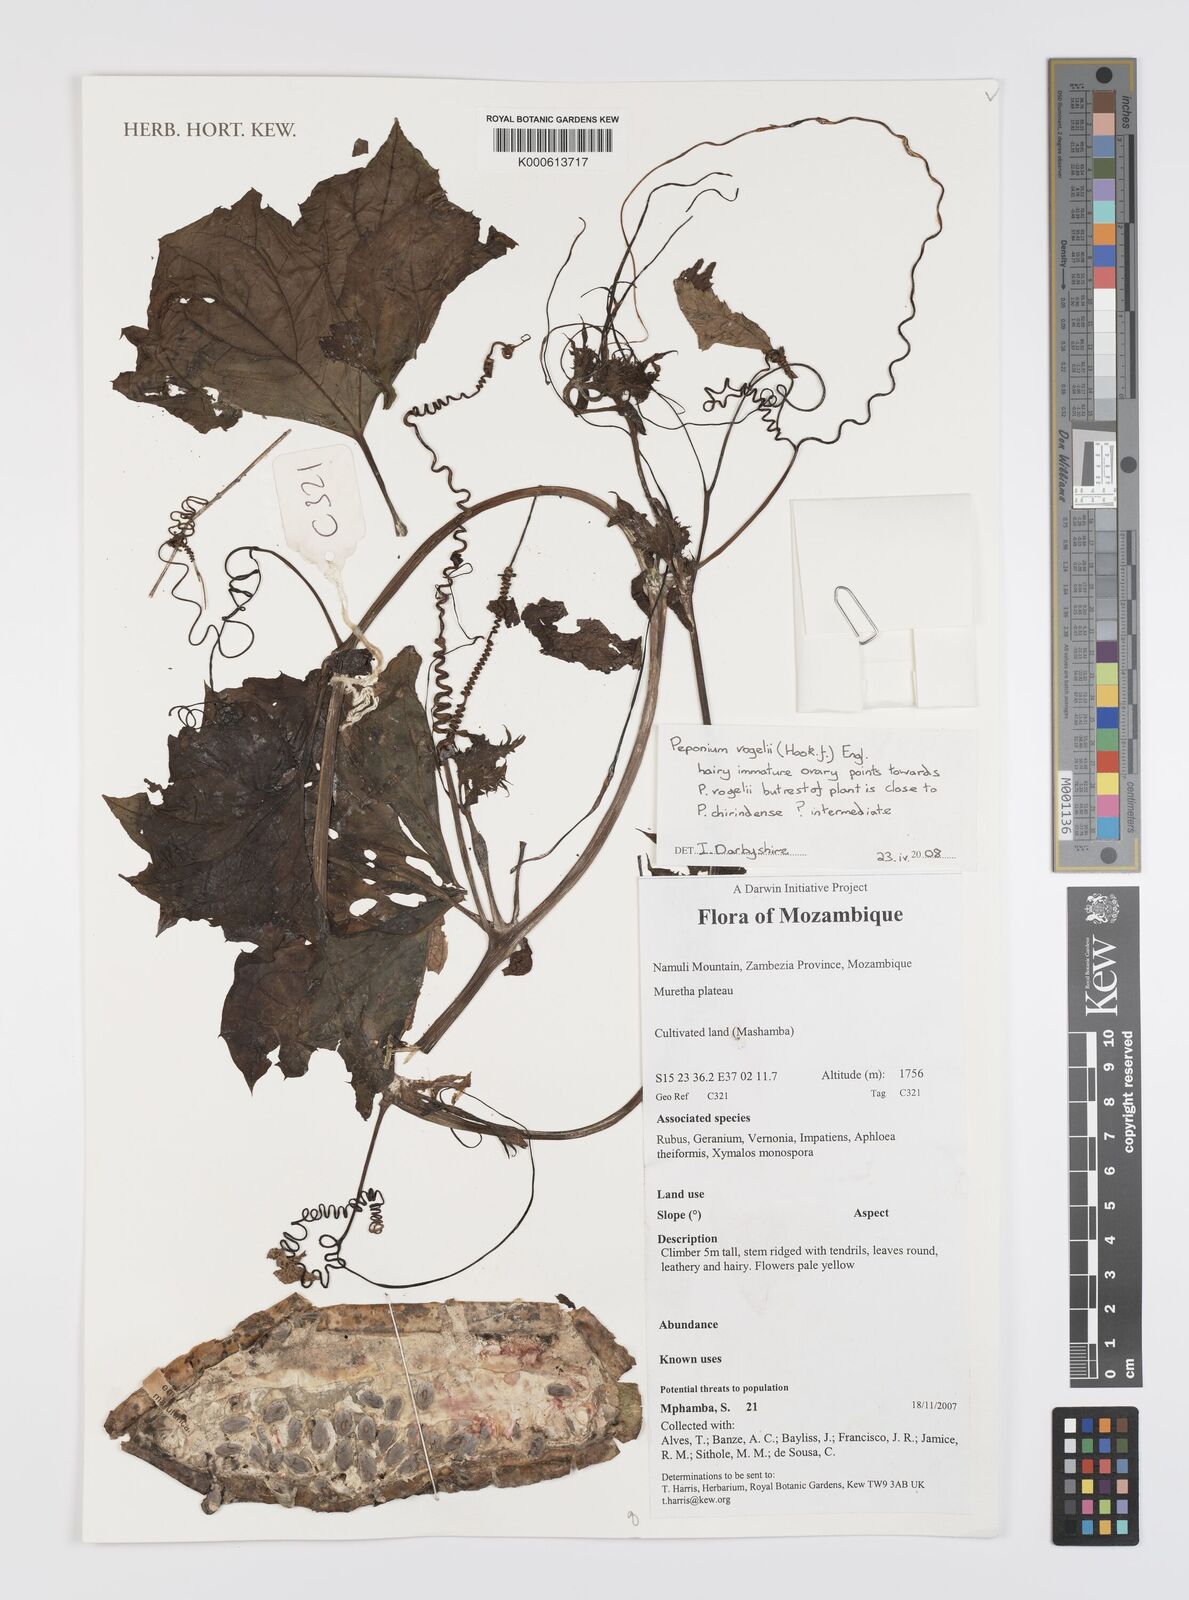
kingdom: Plantae
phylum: Tracheophyta
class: Magnoliopsida
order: Cucurbitales
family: Cucurbitaceae
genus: Peponium
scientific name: Peponium vogelii
